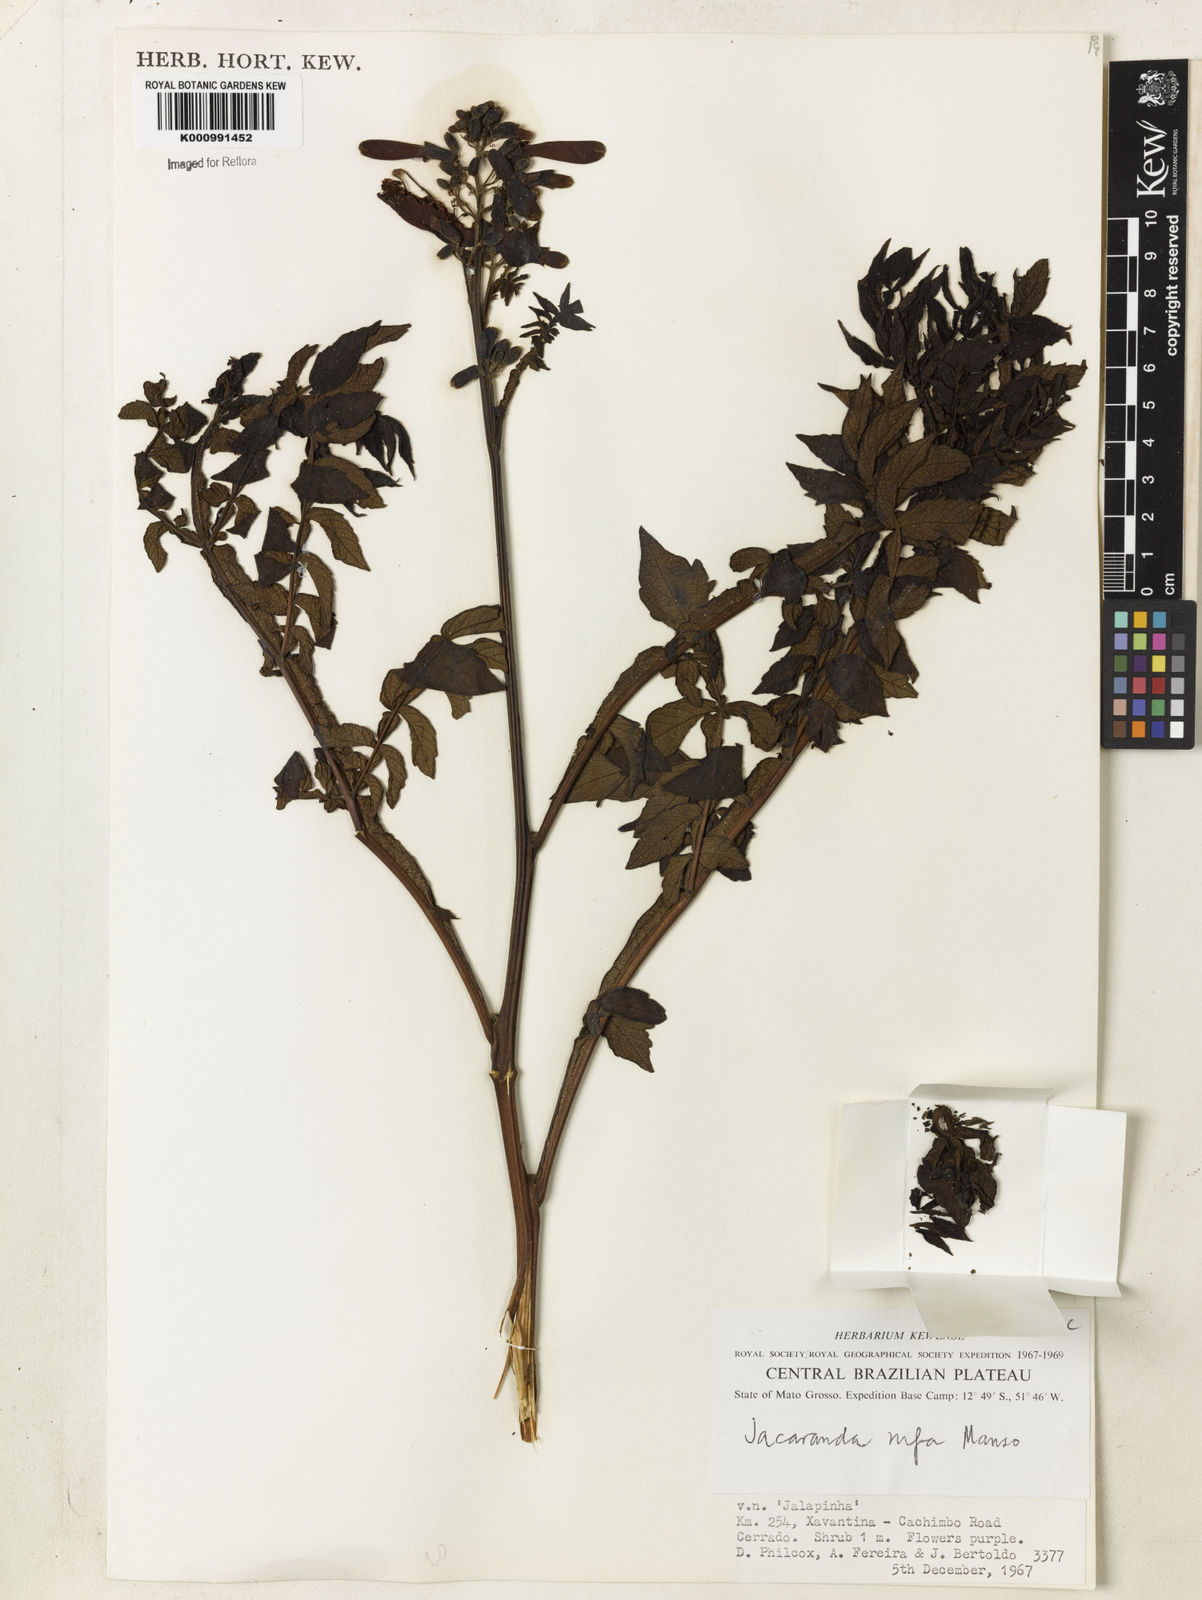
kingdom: Plantae
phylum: Tracheophyta
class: Magnoliopsida
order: Lamiales
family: Bignoniaceae
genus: Jacaranda
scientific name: Jacaranda rufa
